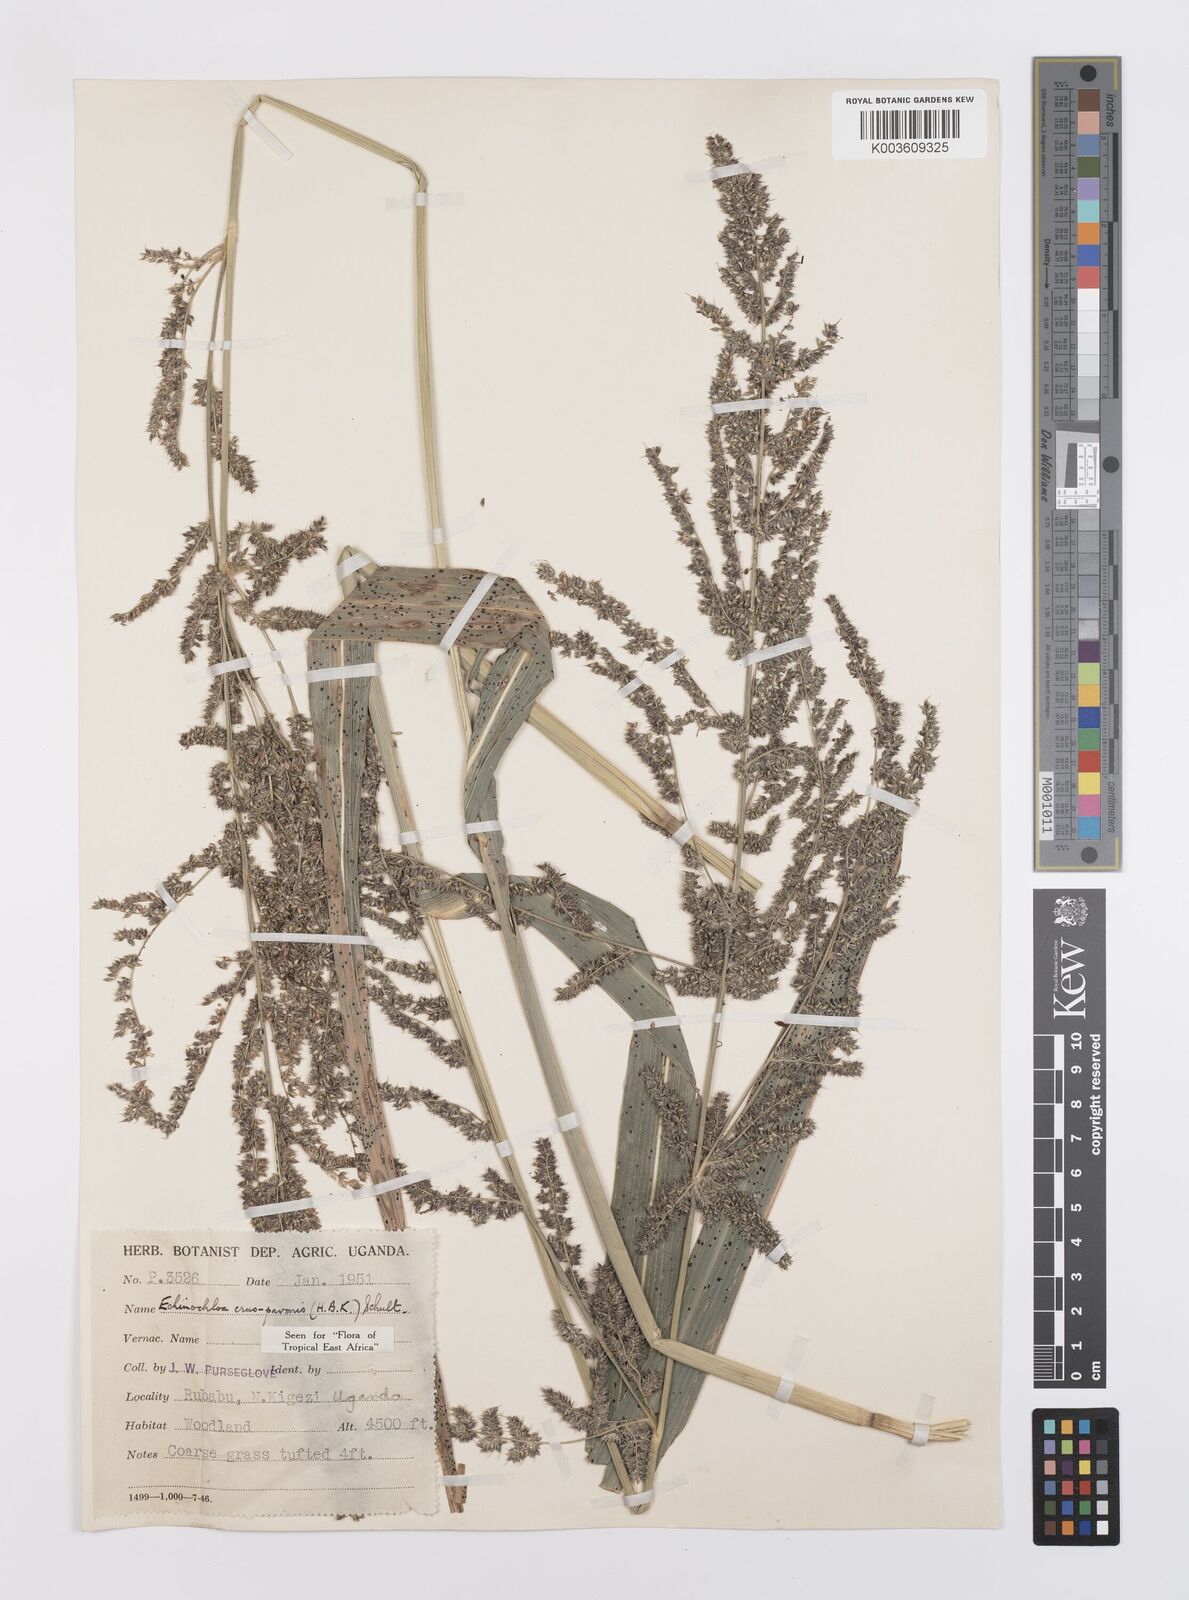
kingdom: Plantae
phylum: Tracheophyta
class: Liliopsida
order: Poales
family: Poaceae
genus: Echinochloa
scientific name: Echinochloa crus-pavonis
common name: Gulf cockspur grass
